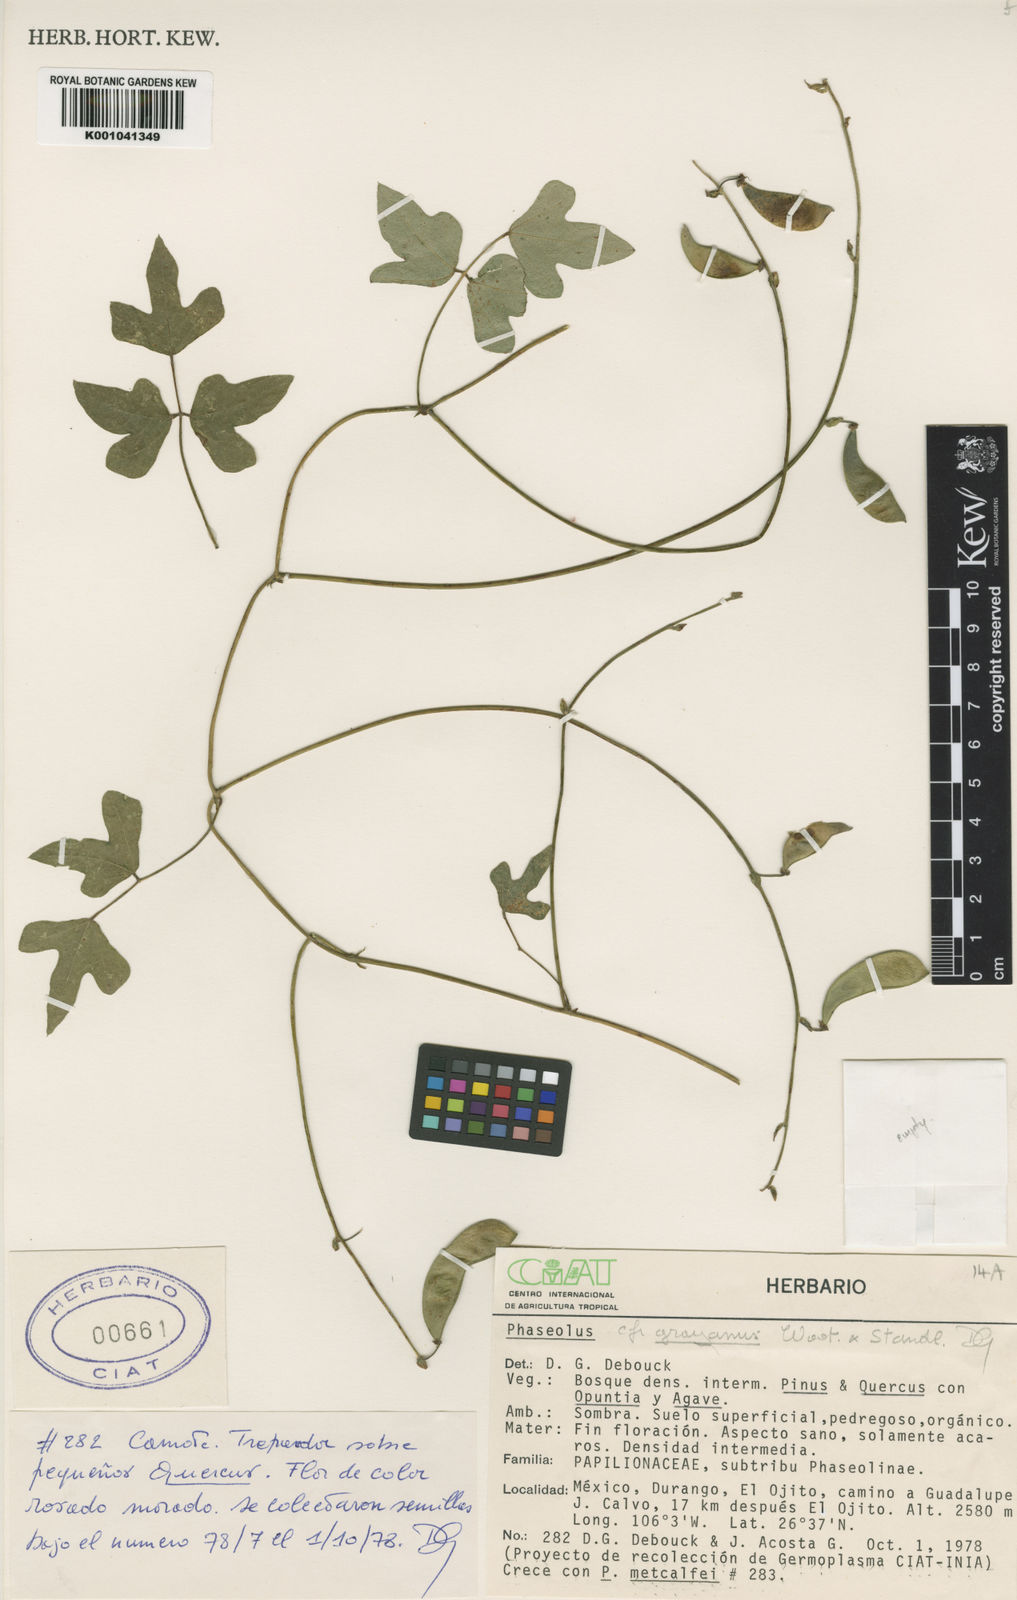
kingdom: Plantae
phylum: Tracheophyta
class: Magnoliopsida
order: Fabales
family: Fabaceae
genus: Phaseolus
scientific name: Phaseolus pedicellatus
